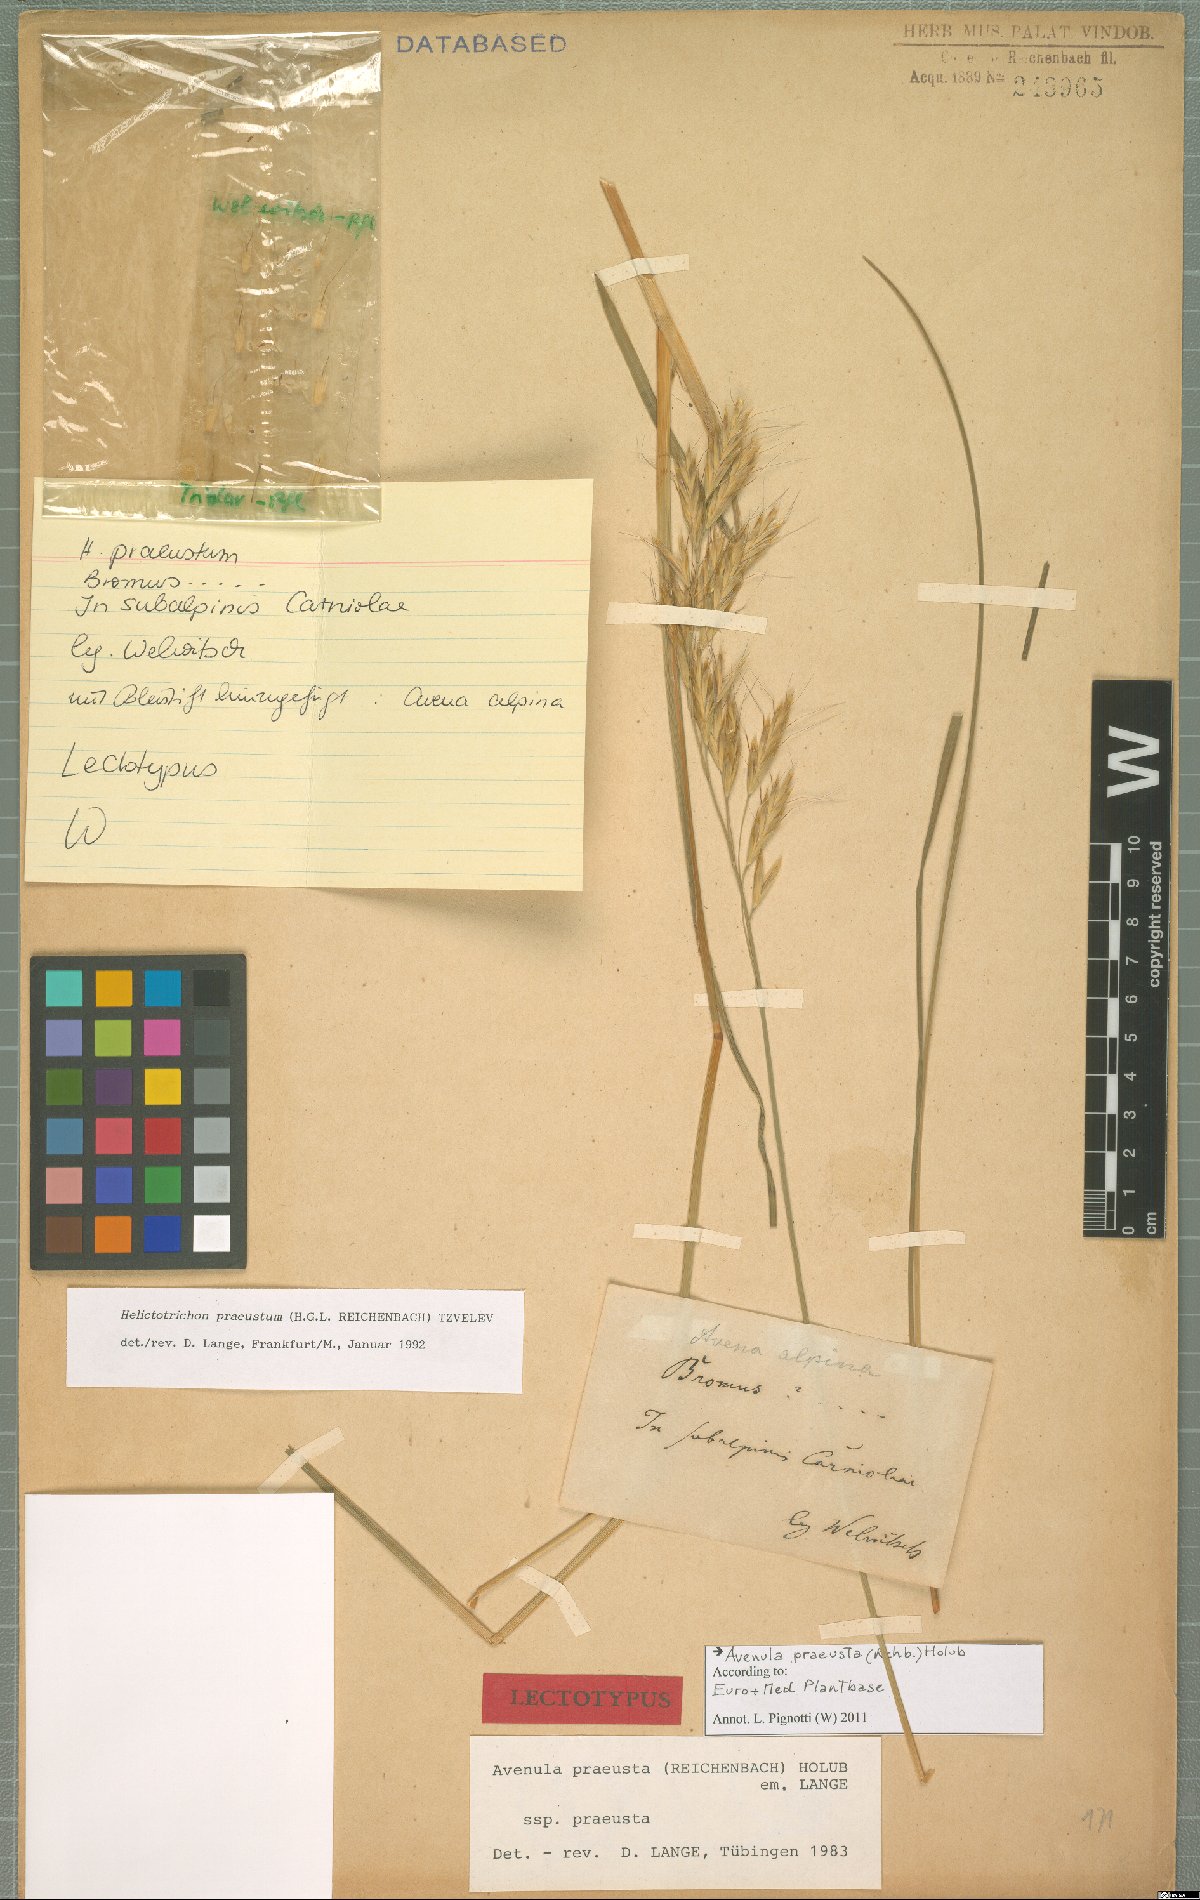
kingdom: Plantae
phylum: Tracheophyta
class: Liliopsida
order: Poales
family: Poaceae
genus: Helictochloa
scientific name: Helictochloa praeusta
